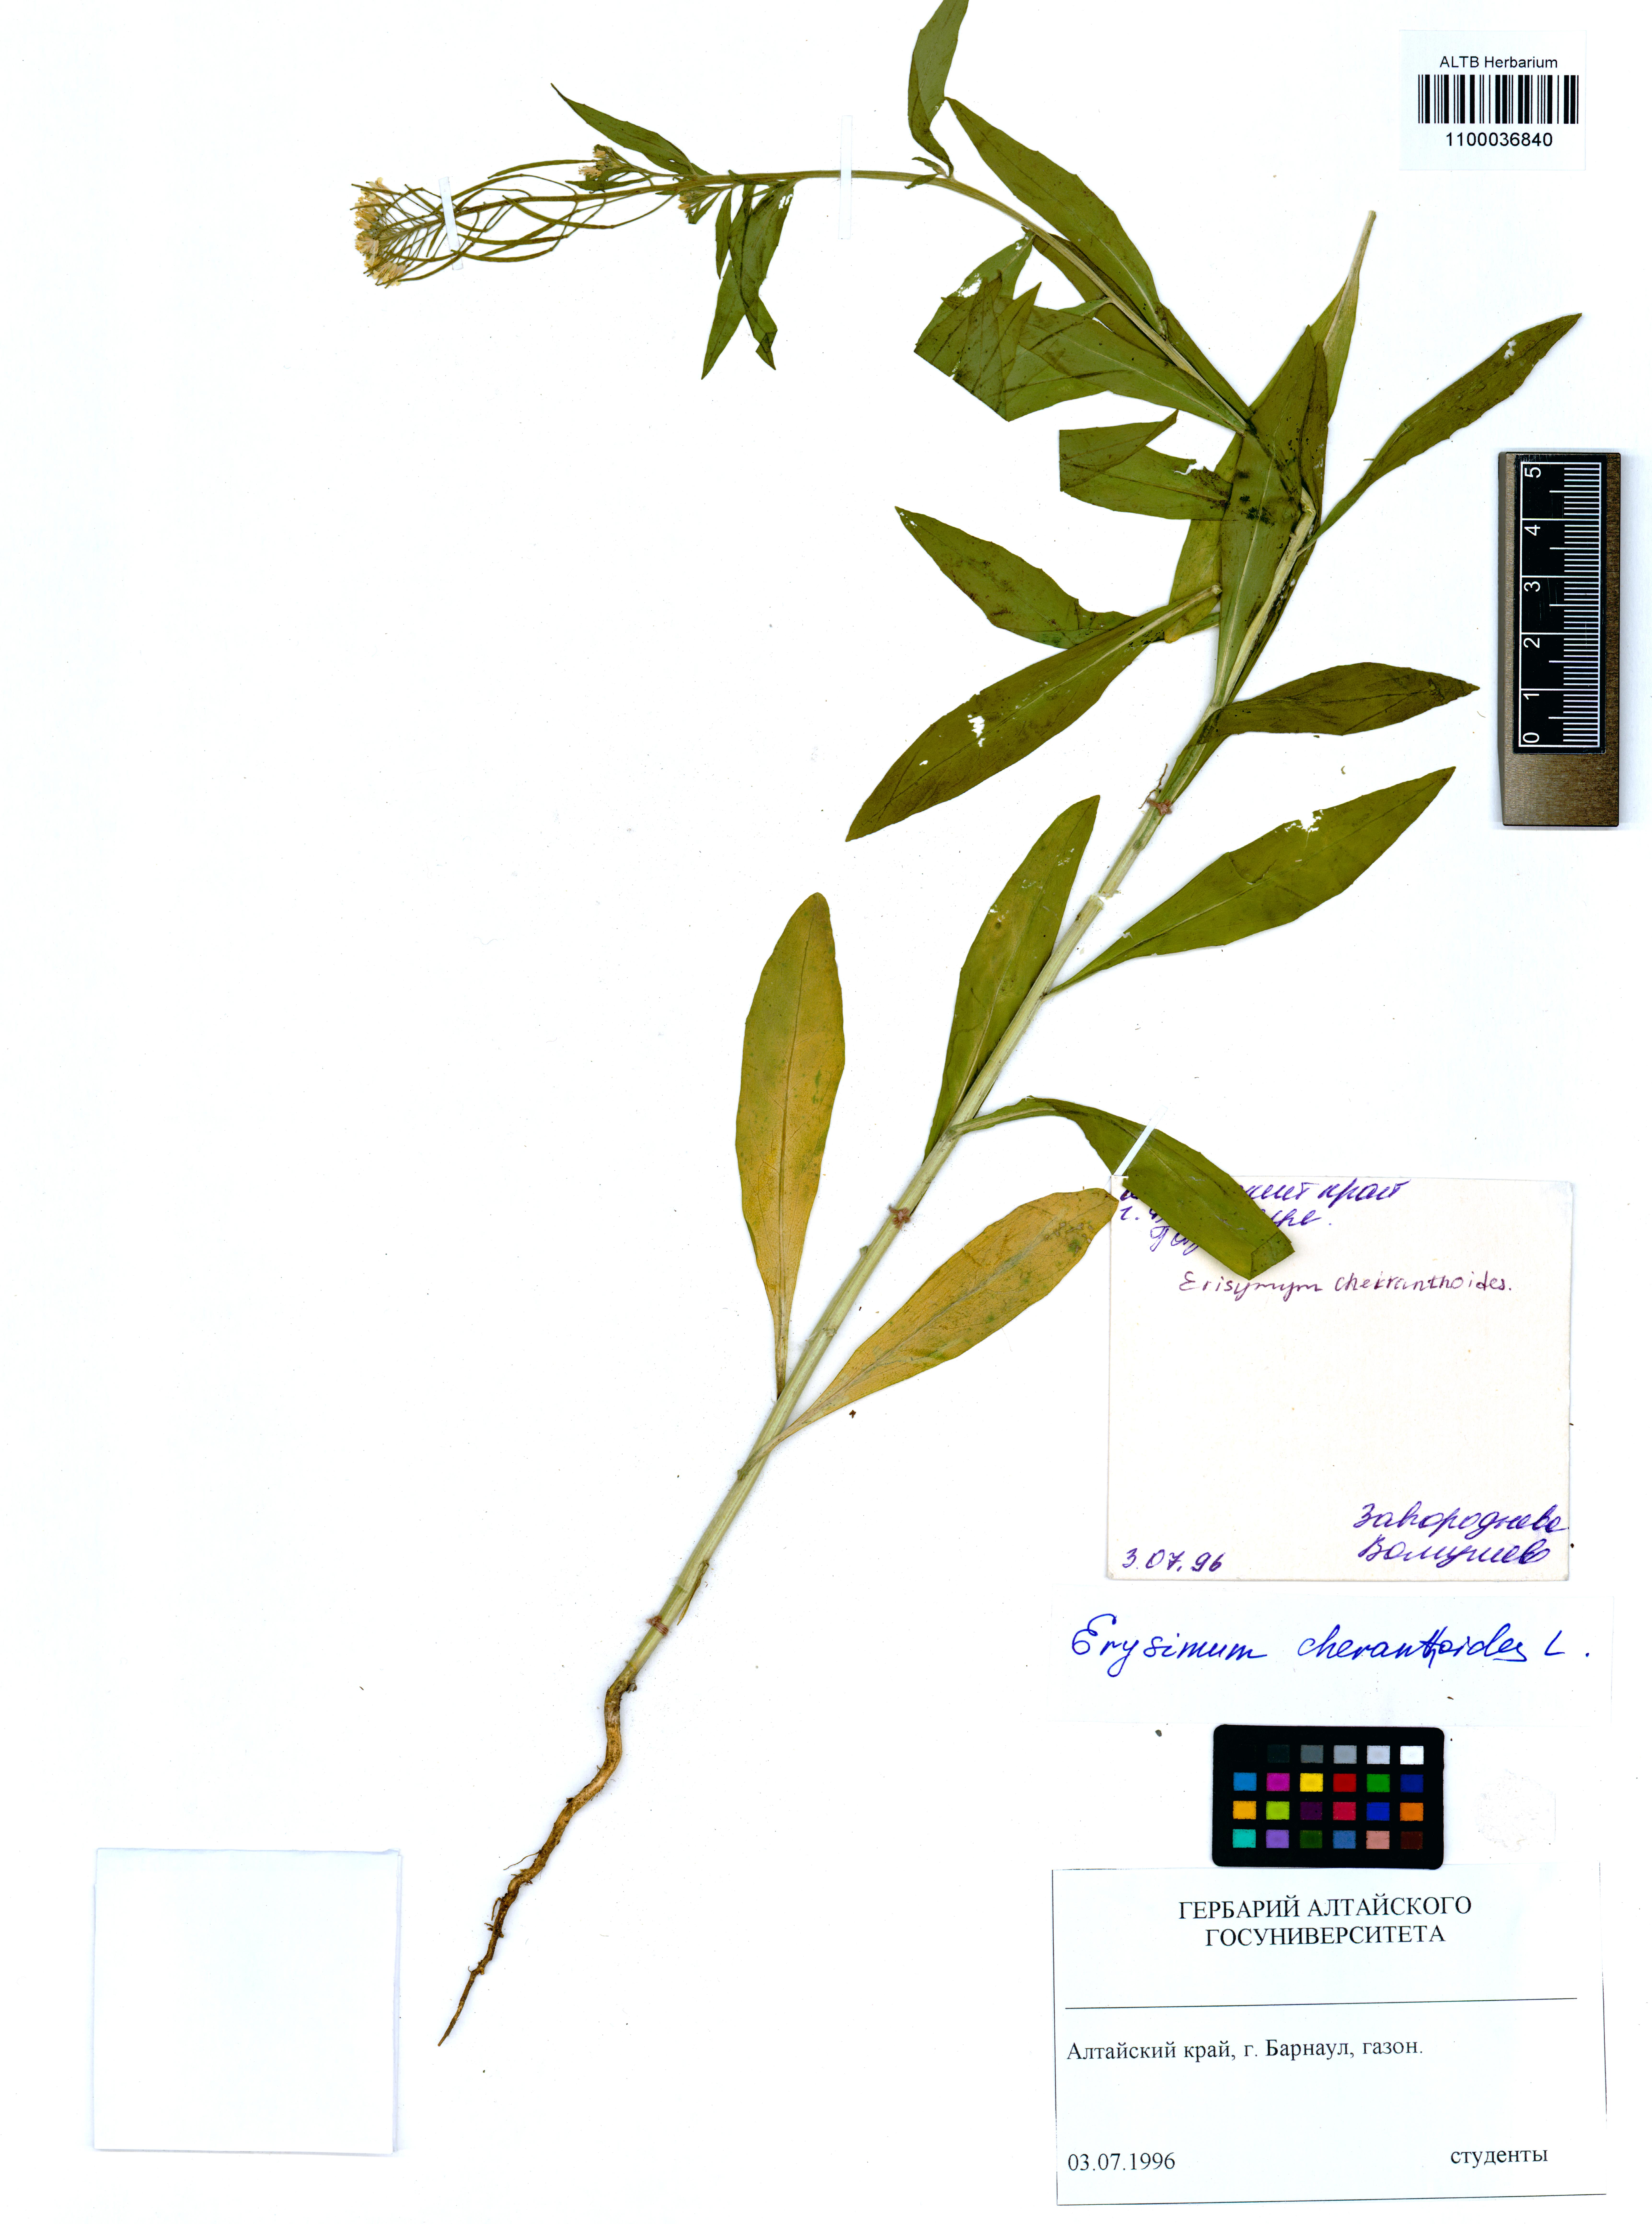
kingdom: Plantae
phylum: Tracheophyta
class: Magnoliopsida
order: Brassicales
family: Brassicaceae
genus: Erysimum
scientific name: Erysimum cheiranthoides
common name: Treacle mustard
